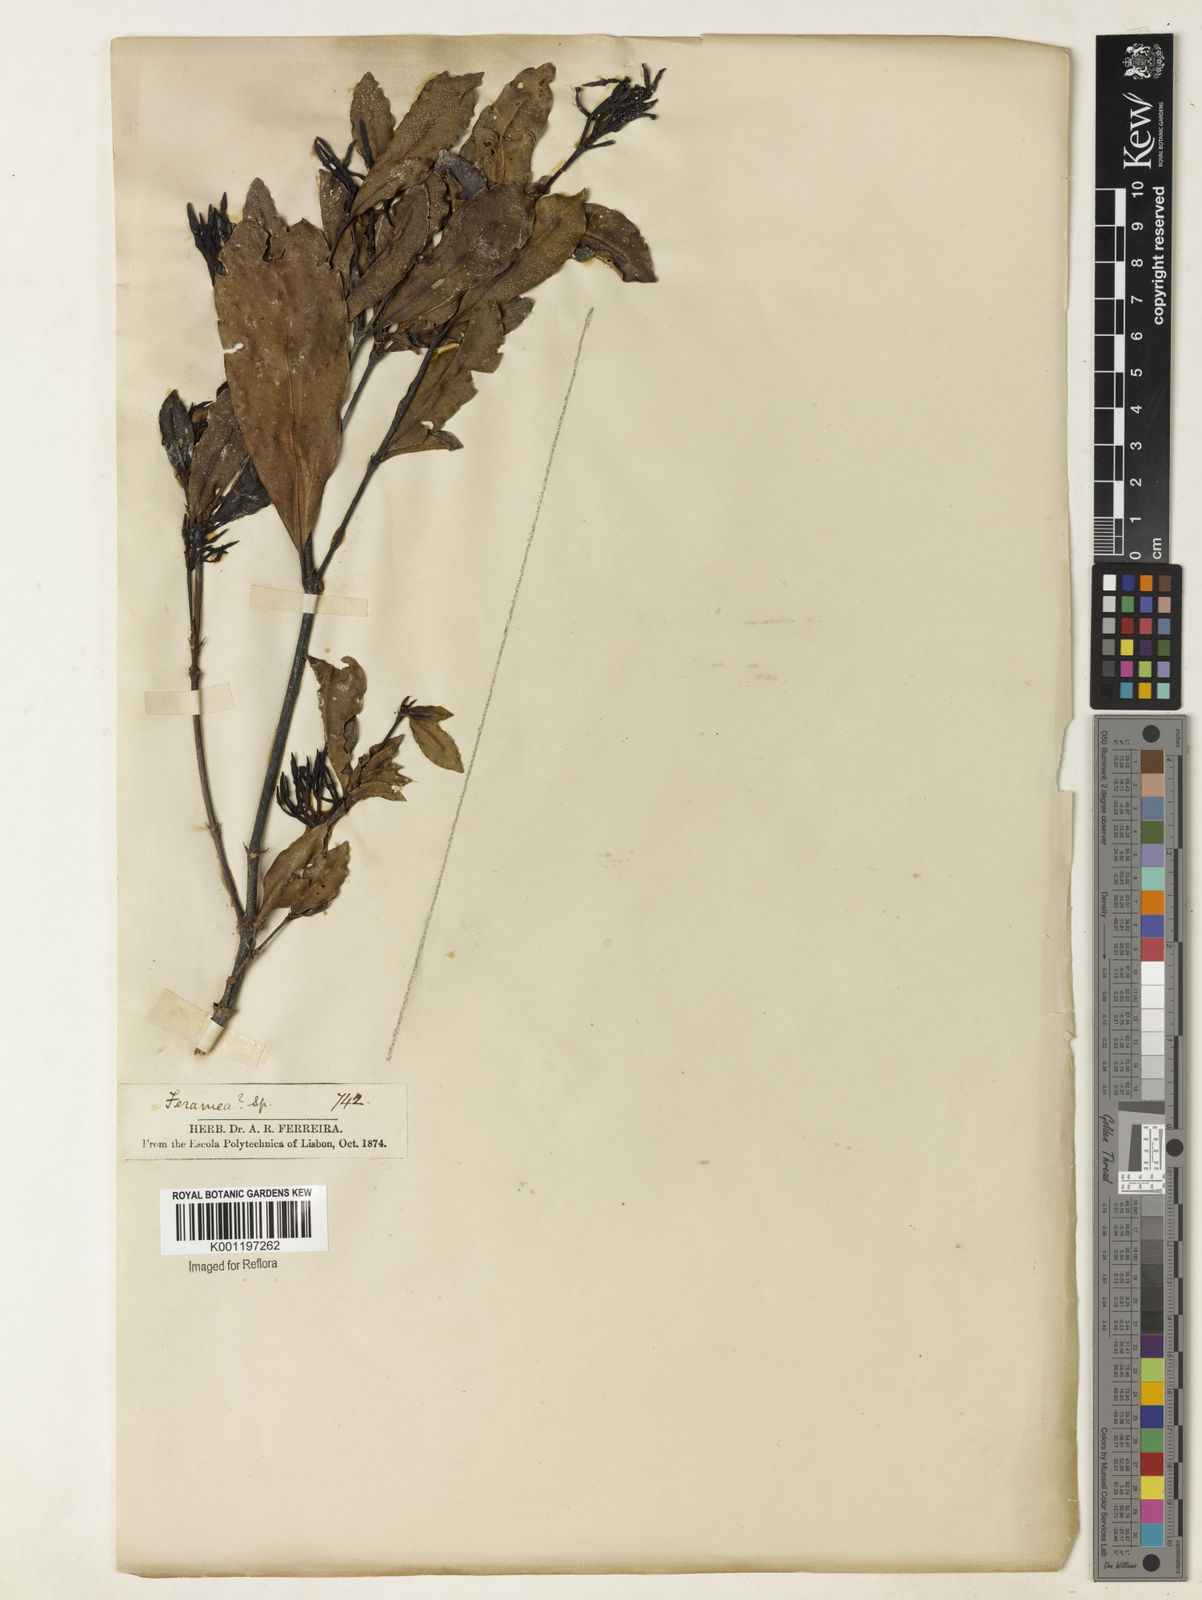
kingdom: Plantae
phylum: Tracheophyta
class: Magnoliopsida
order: Gentianales
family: Rubiaceae
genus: Faramea
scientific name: Faramea
